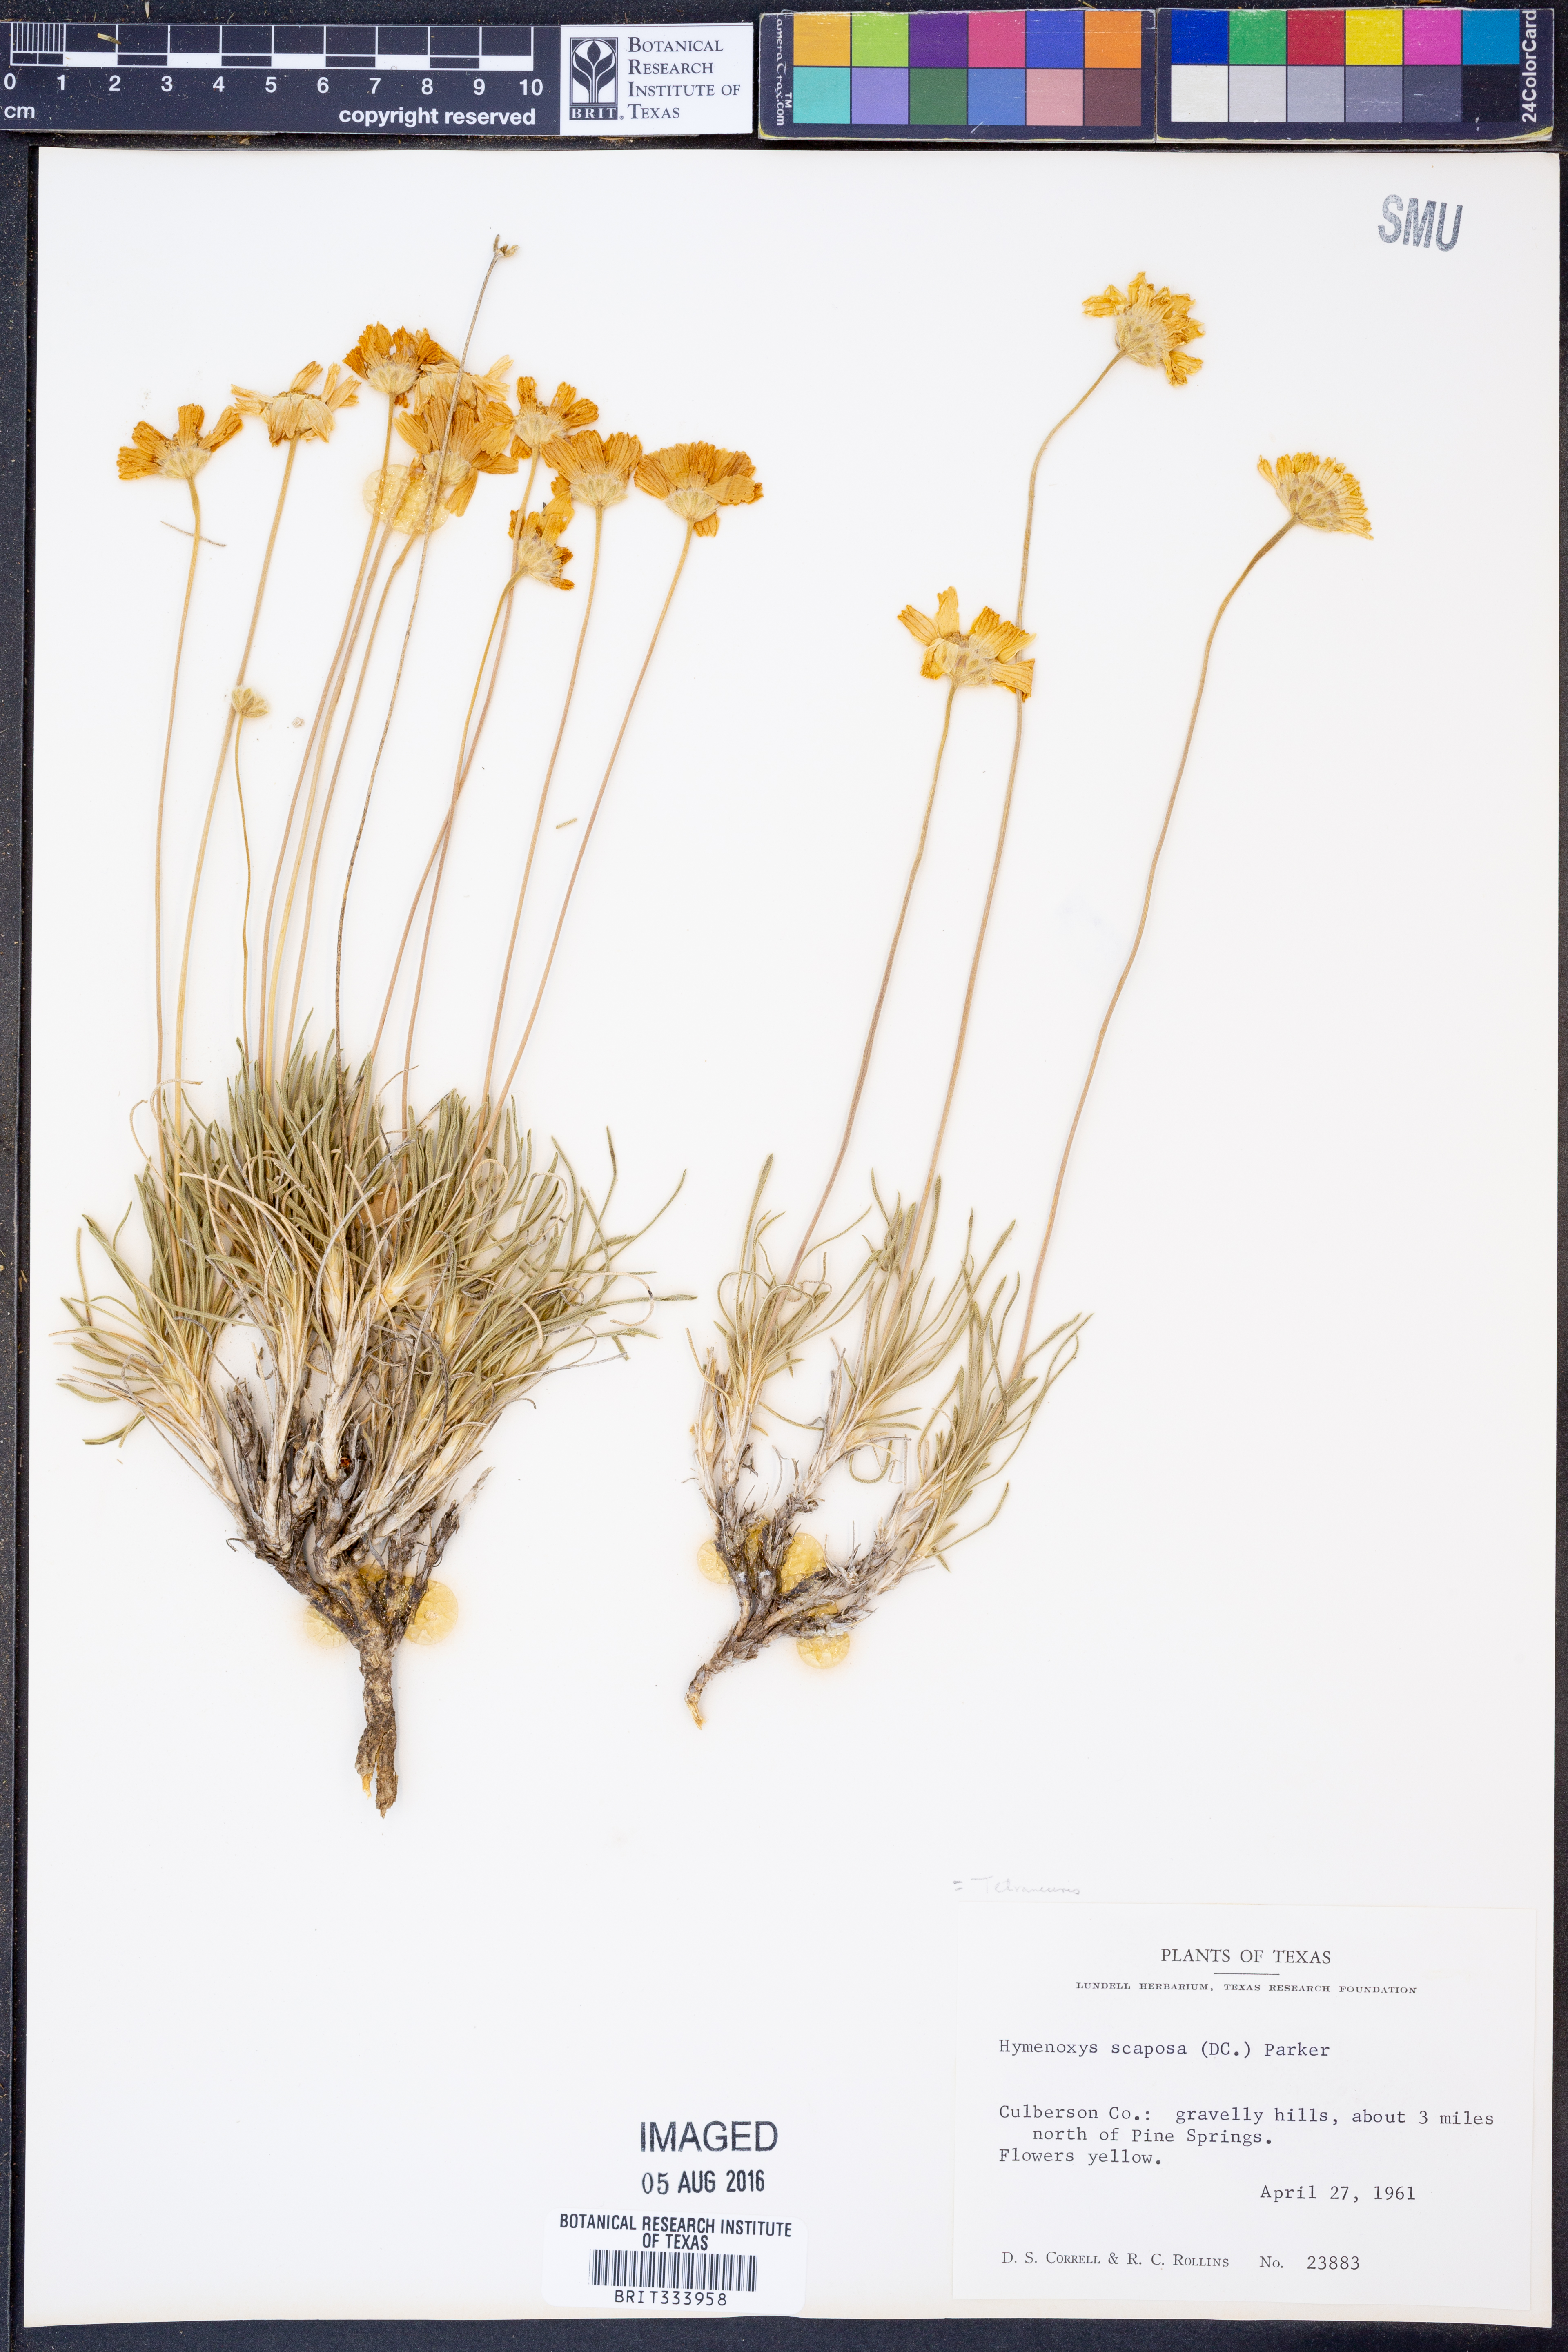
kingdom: Plantae
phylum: Tracheophyta
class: Magnoliopsida
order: Asterales
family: Asteraceae
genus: Tetraneuris
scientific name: Tetraneuris scaposa
